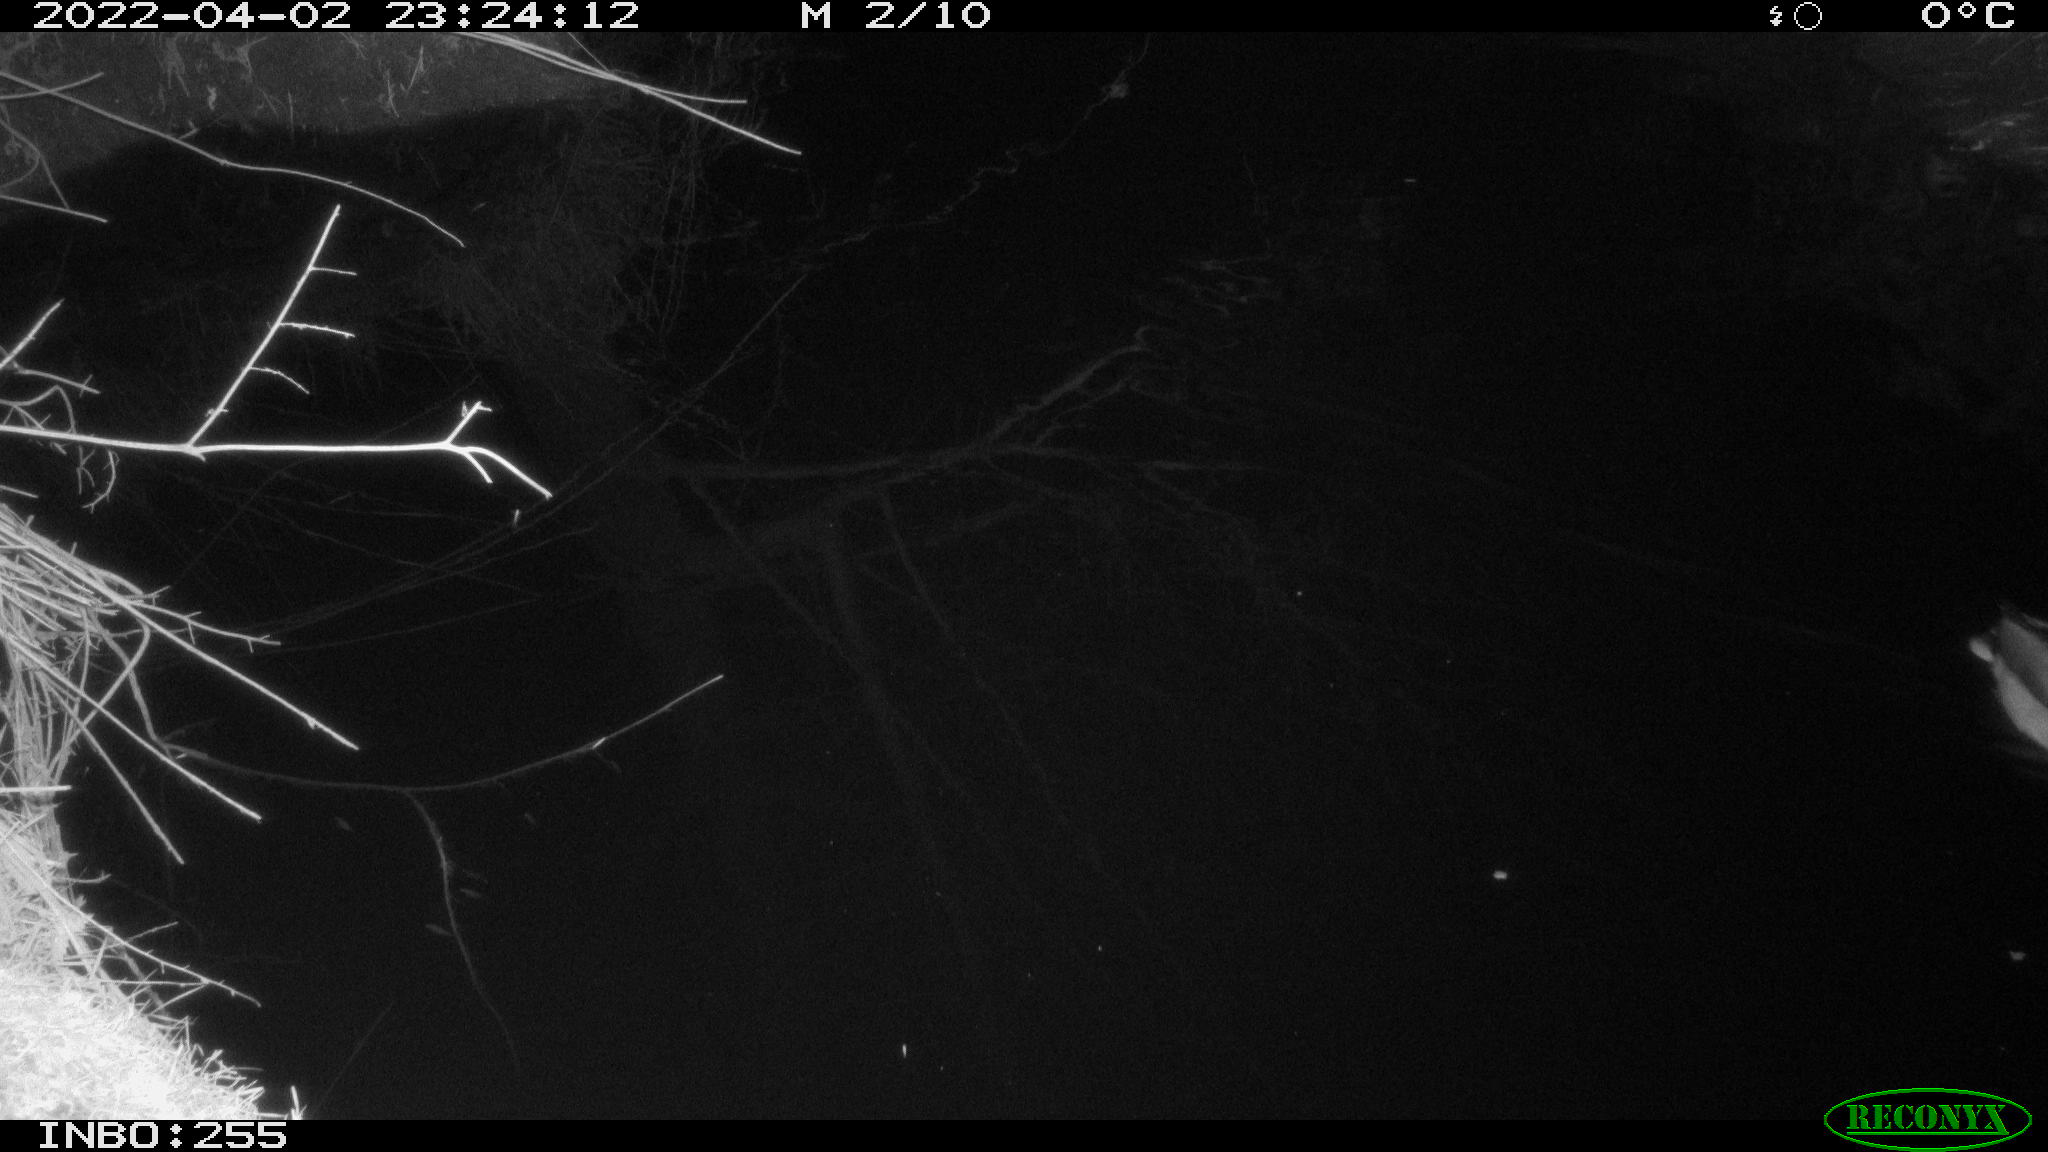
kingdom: Animalia
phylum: Chordata
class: Aves
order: Anseriformes
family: Anatidae
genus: Anas
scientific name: Anas platyrhynchos
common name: Mallard
